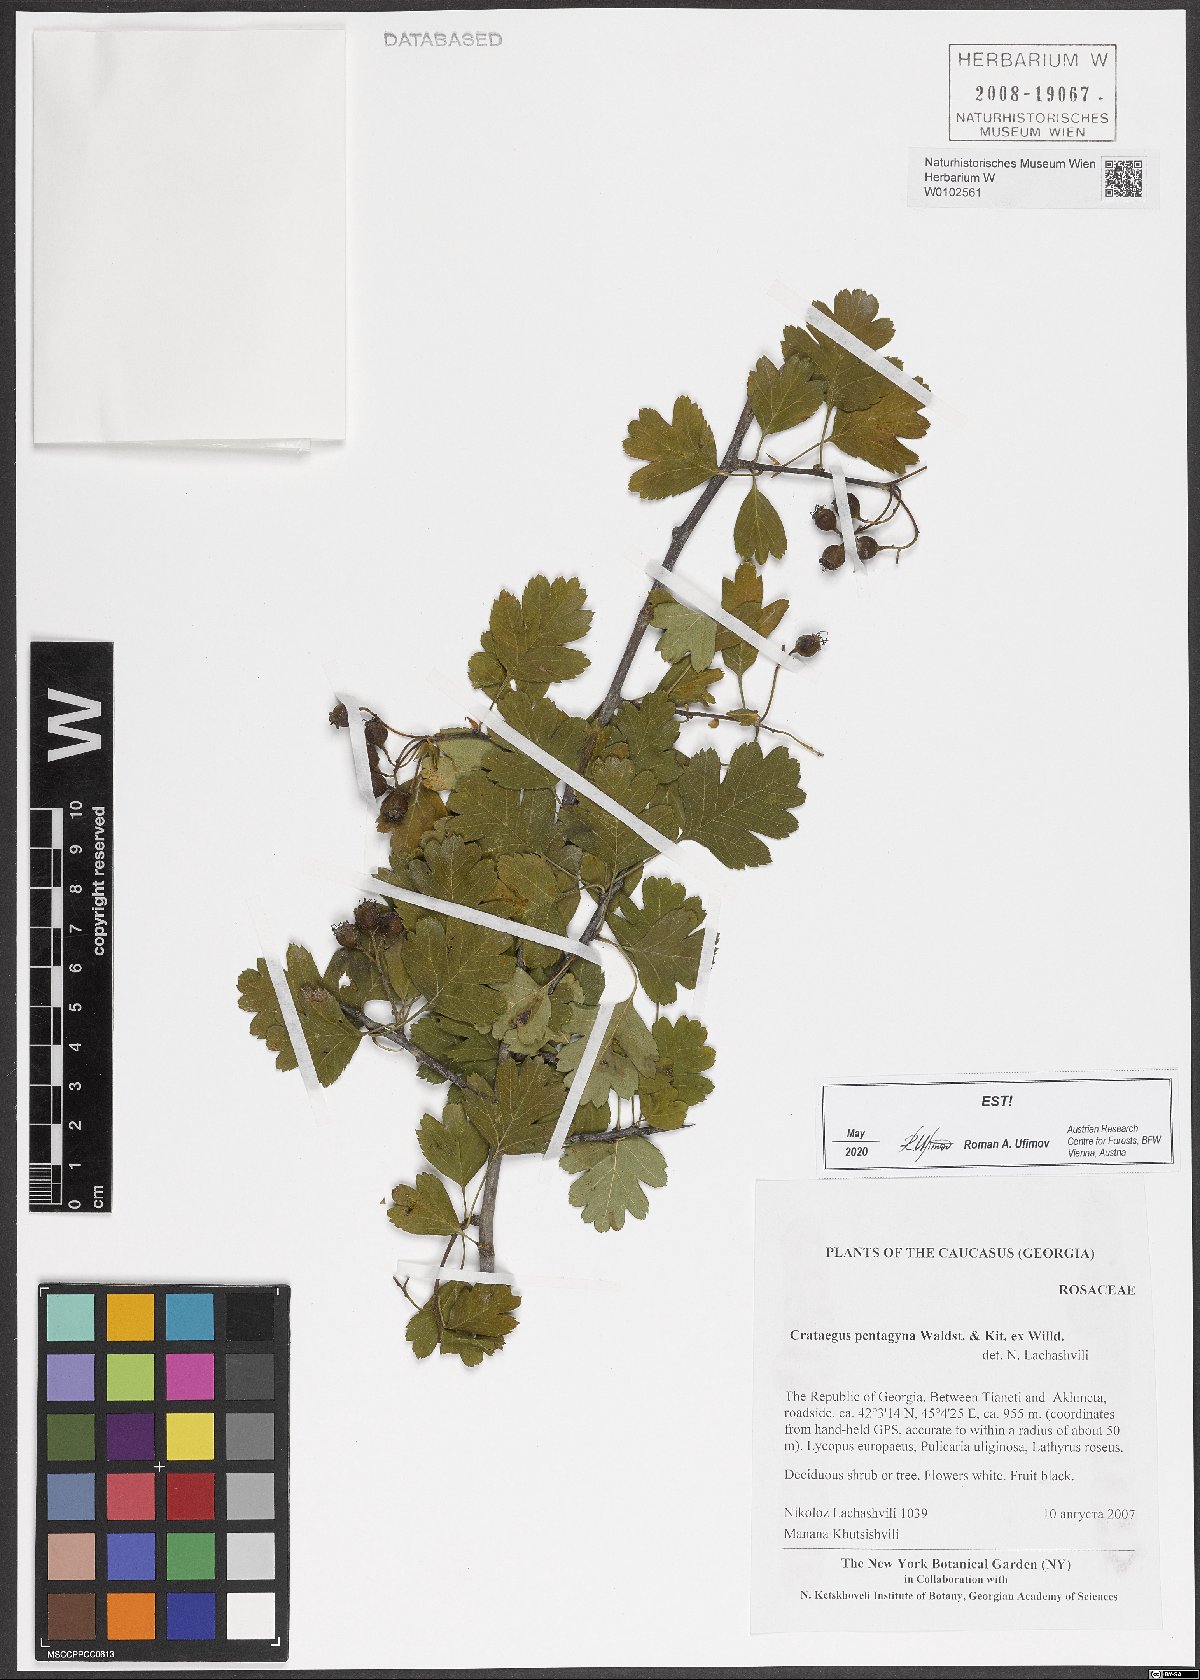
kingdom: Plantae
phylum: Tracheophyta
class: Magnoliopsida
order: Rosales
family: Rosaceae
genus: Crataegus
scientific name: Crataegus pentagyna
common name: Small-flowered black hawthorn
